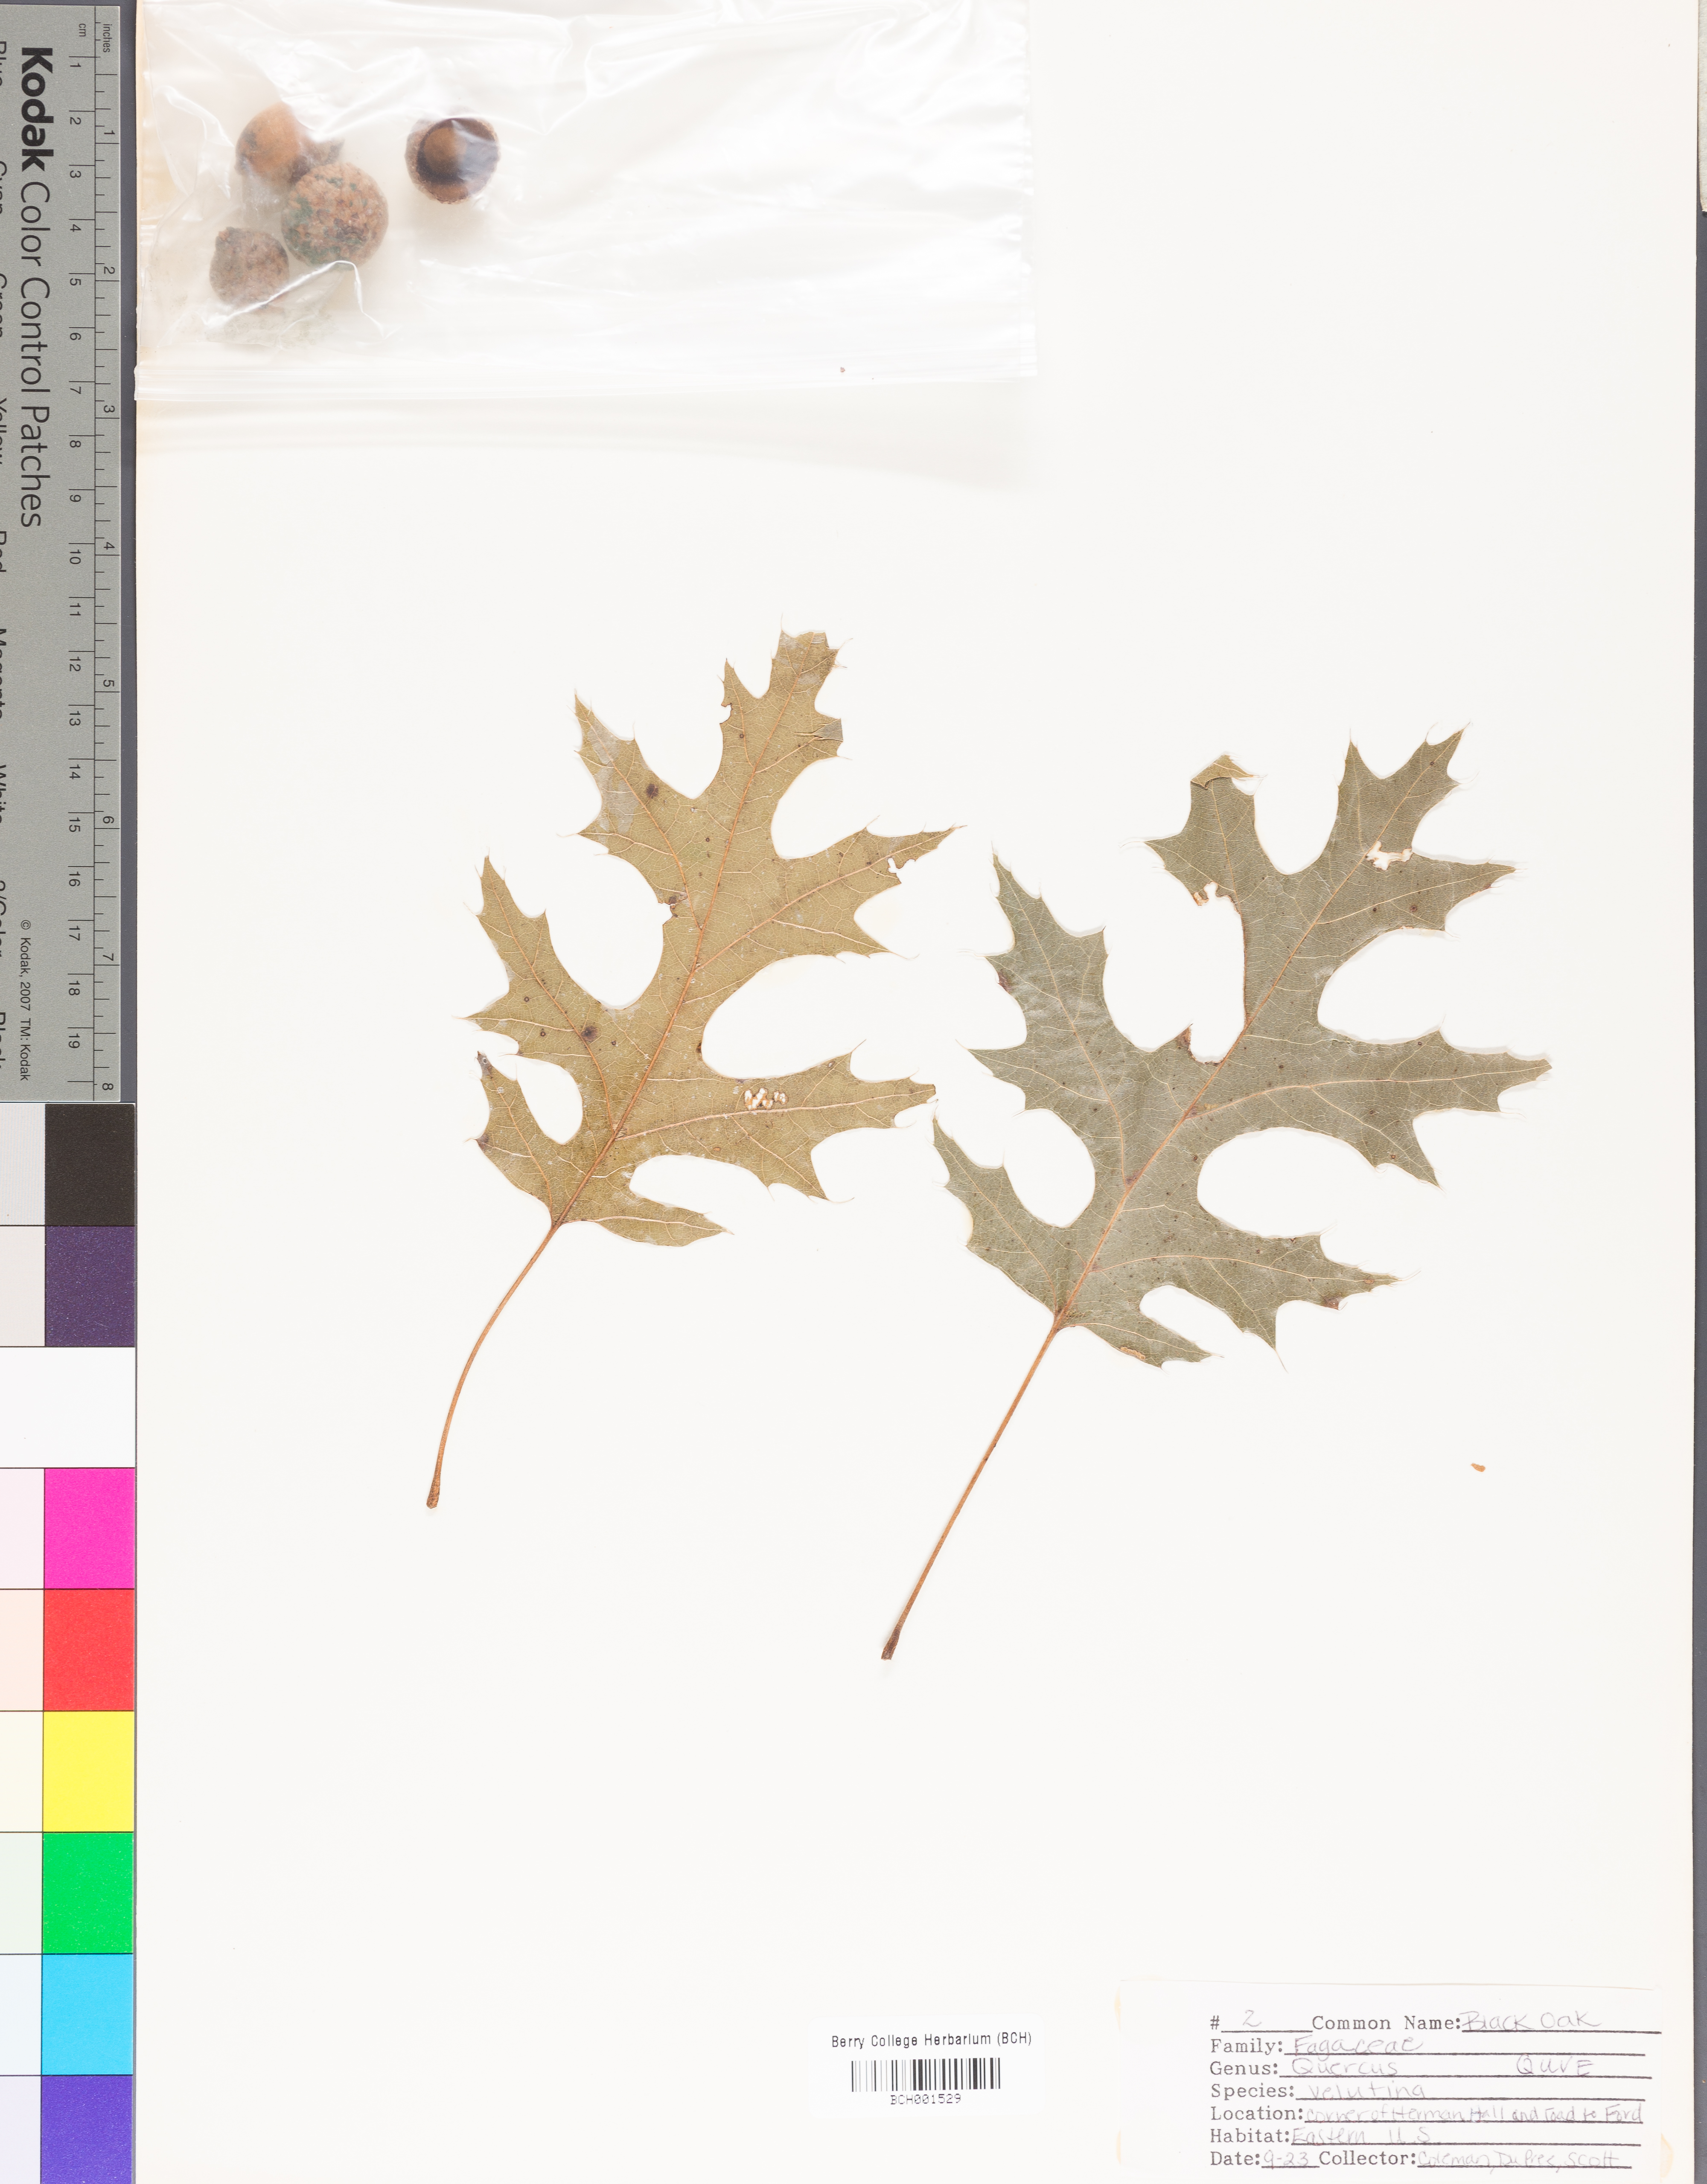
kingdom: Plantae
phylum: Tracheophyta
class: Magnoliopsida
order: Fagales
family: Fagaceae
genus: Quercus
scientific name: Quercus velutina
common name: Black oak
